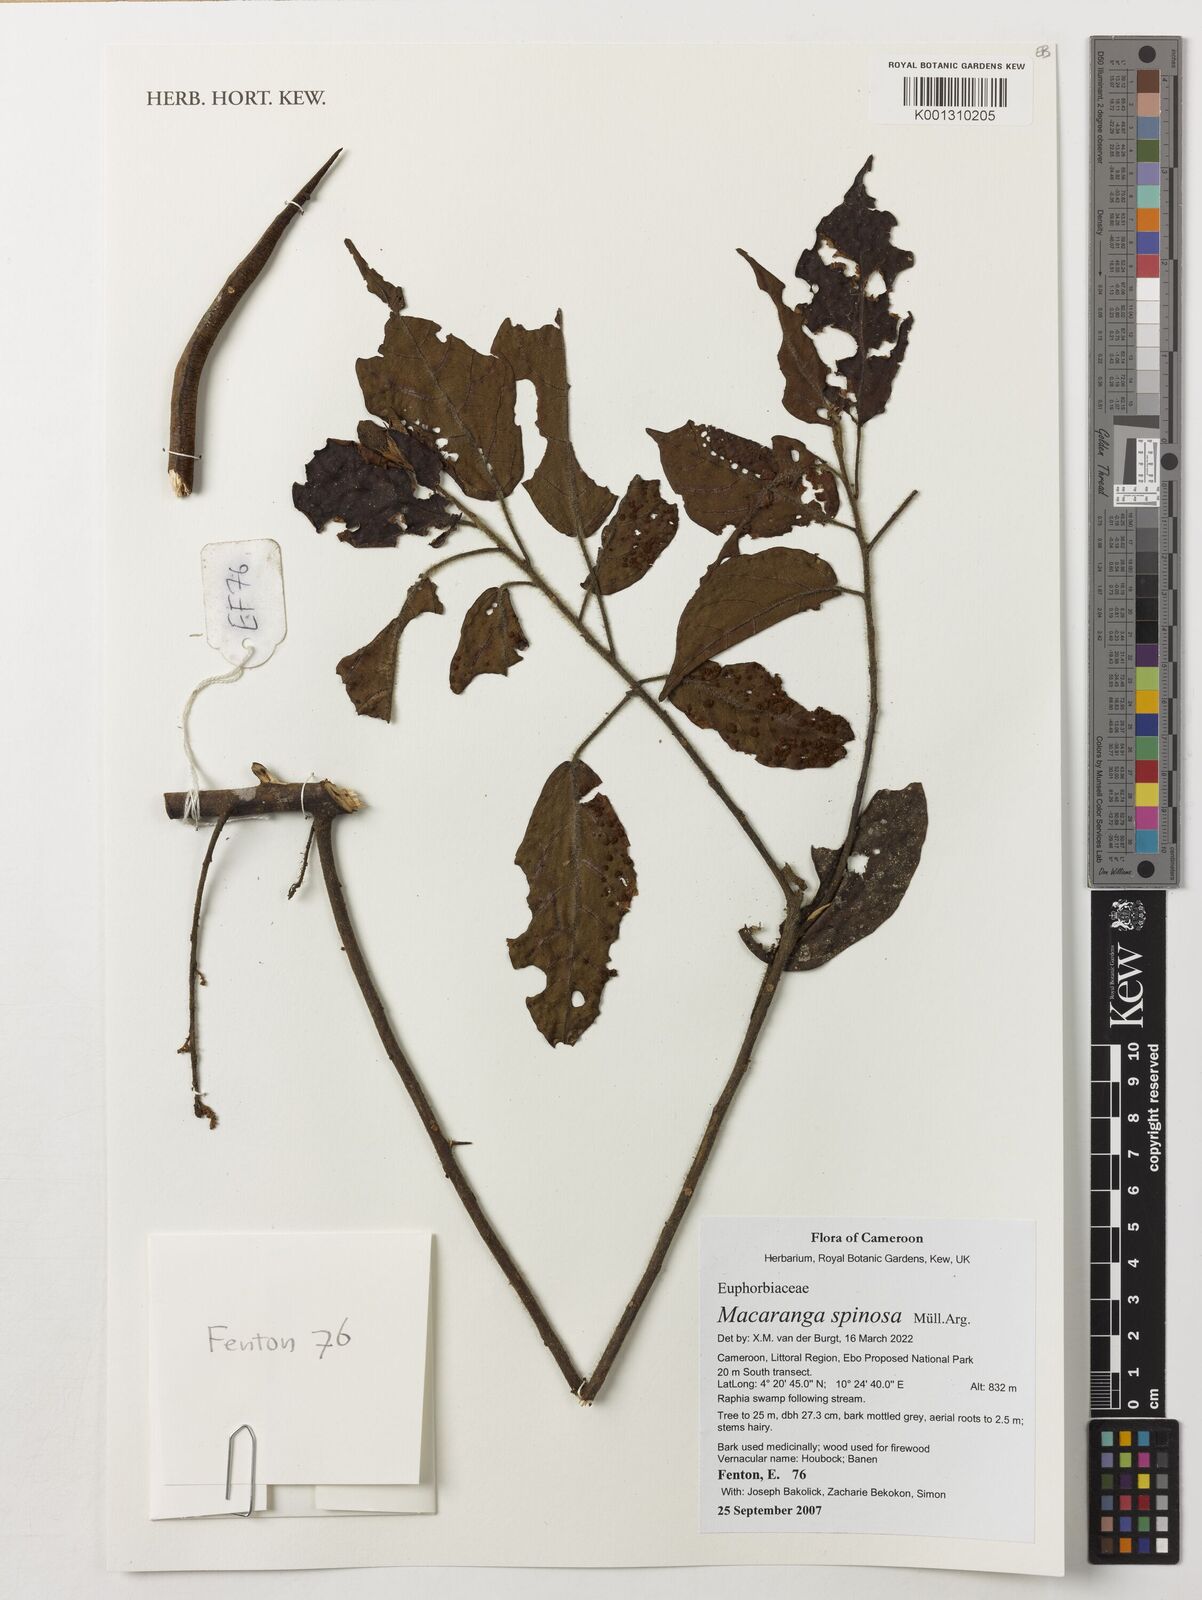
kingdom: Plantae
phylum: Tracheophyta
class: Magnoliopsida
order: Malpighiales
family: Euphorbiaceae
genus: Macaranga
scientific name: Macaranga spinosa
